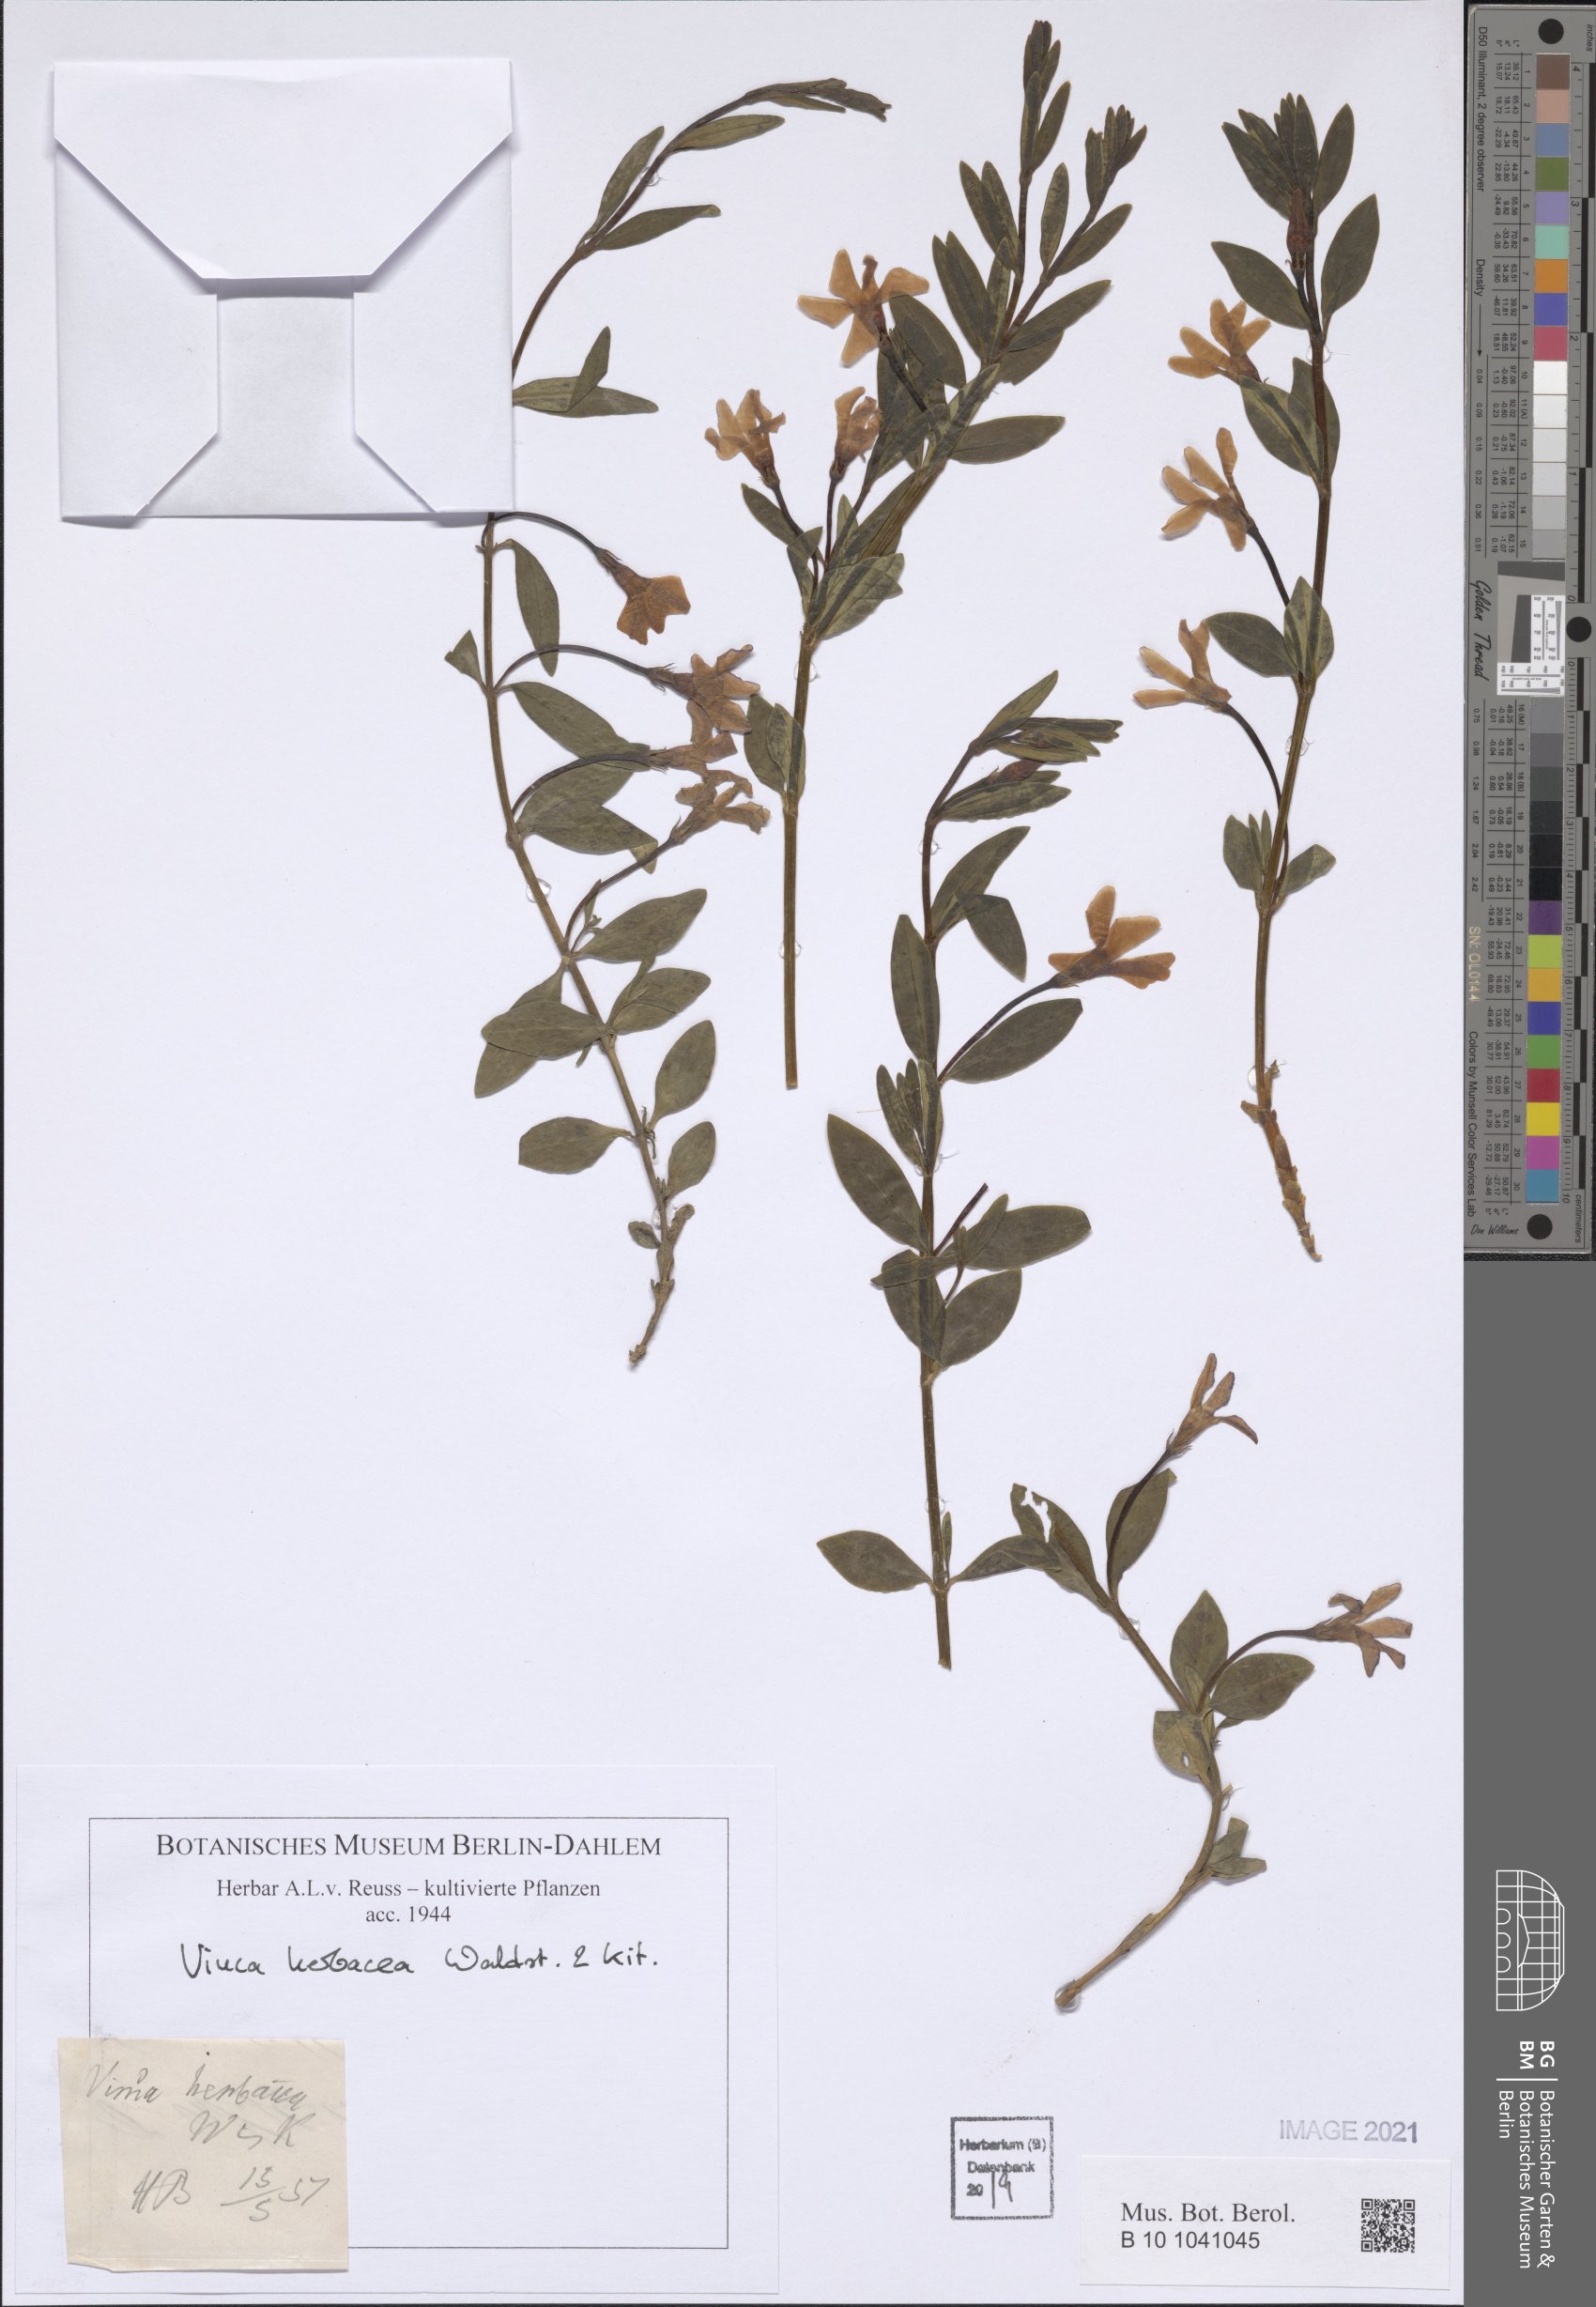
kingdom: Plantae
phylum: Tracheophyta
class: Magnoliopsida
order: Gentianales
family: Apocynaceae
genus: Vinca
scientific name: Vinca herbacea
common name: Herbaceous periwinkle
